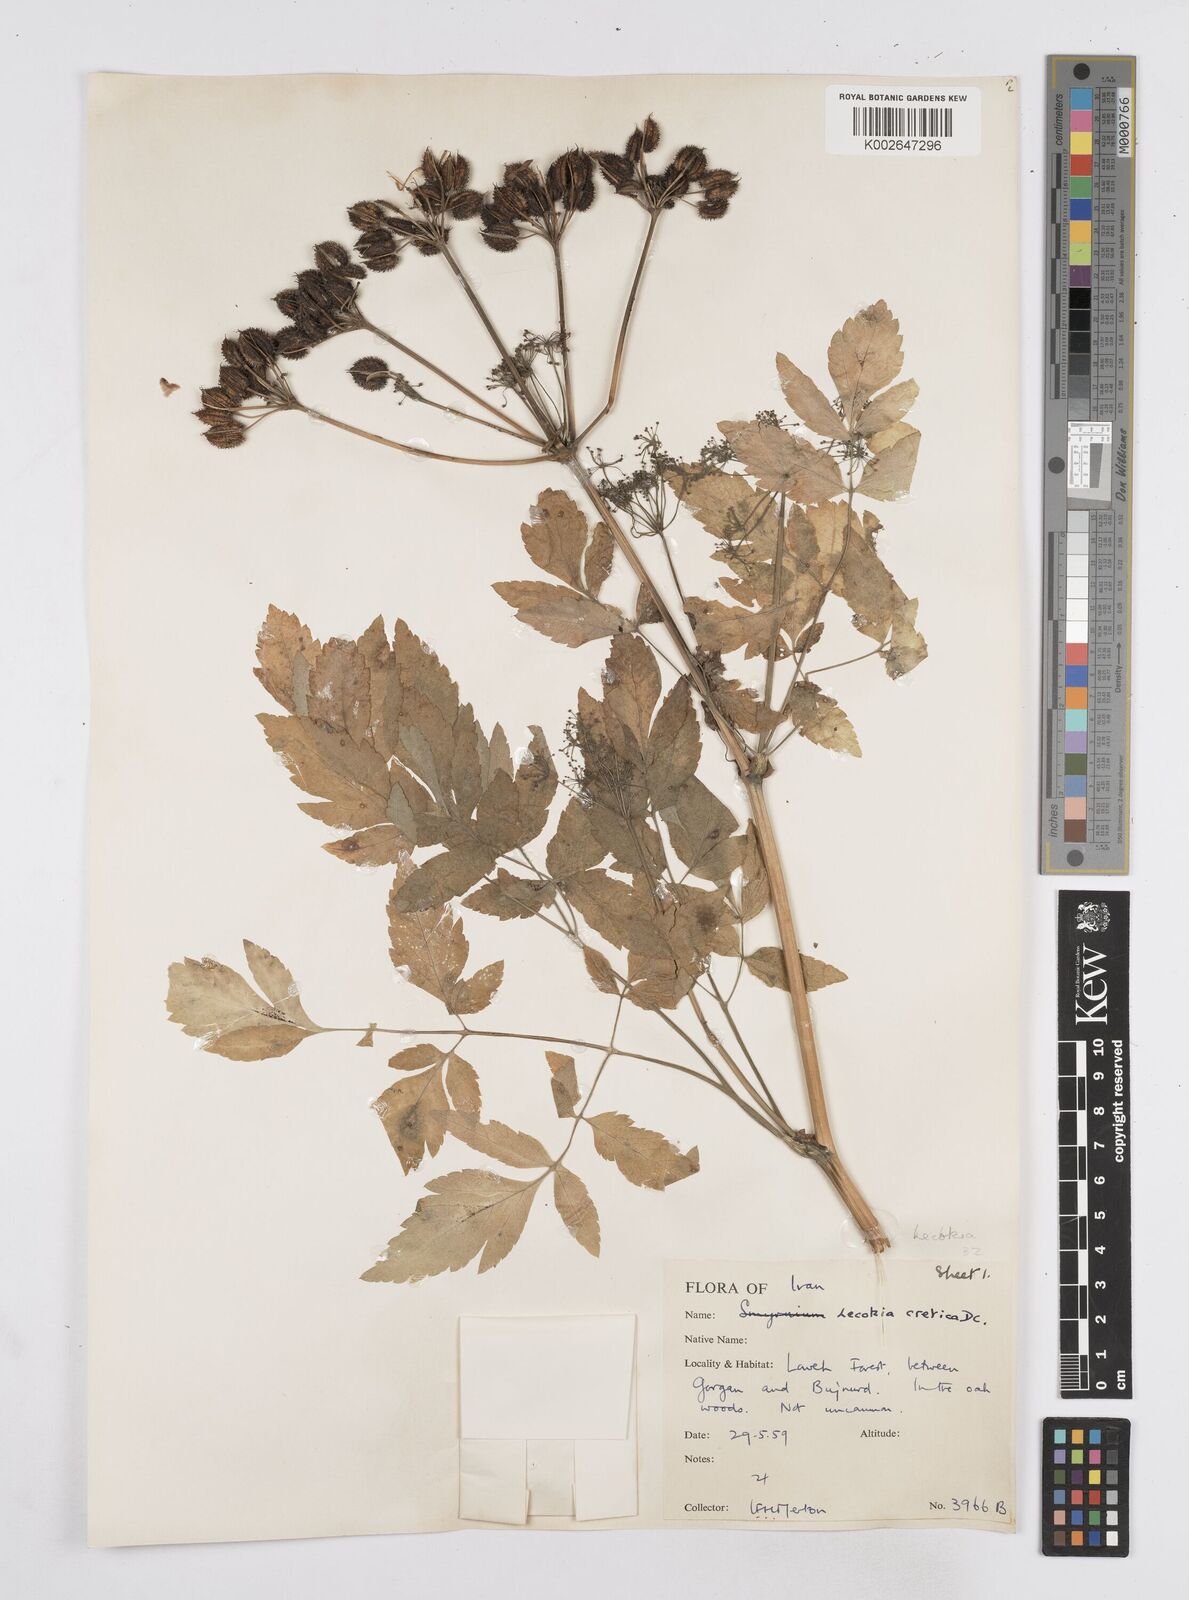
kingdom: Plantae
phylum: Tracheophyta
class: Magnoliopsida
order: Apiales
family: Apiaceae
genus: Lecokia
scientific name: Lecokia cretica
